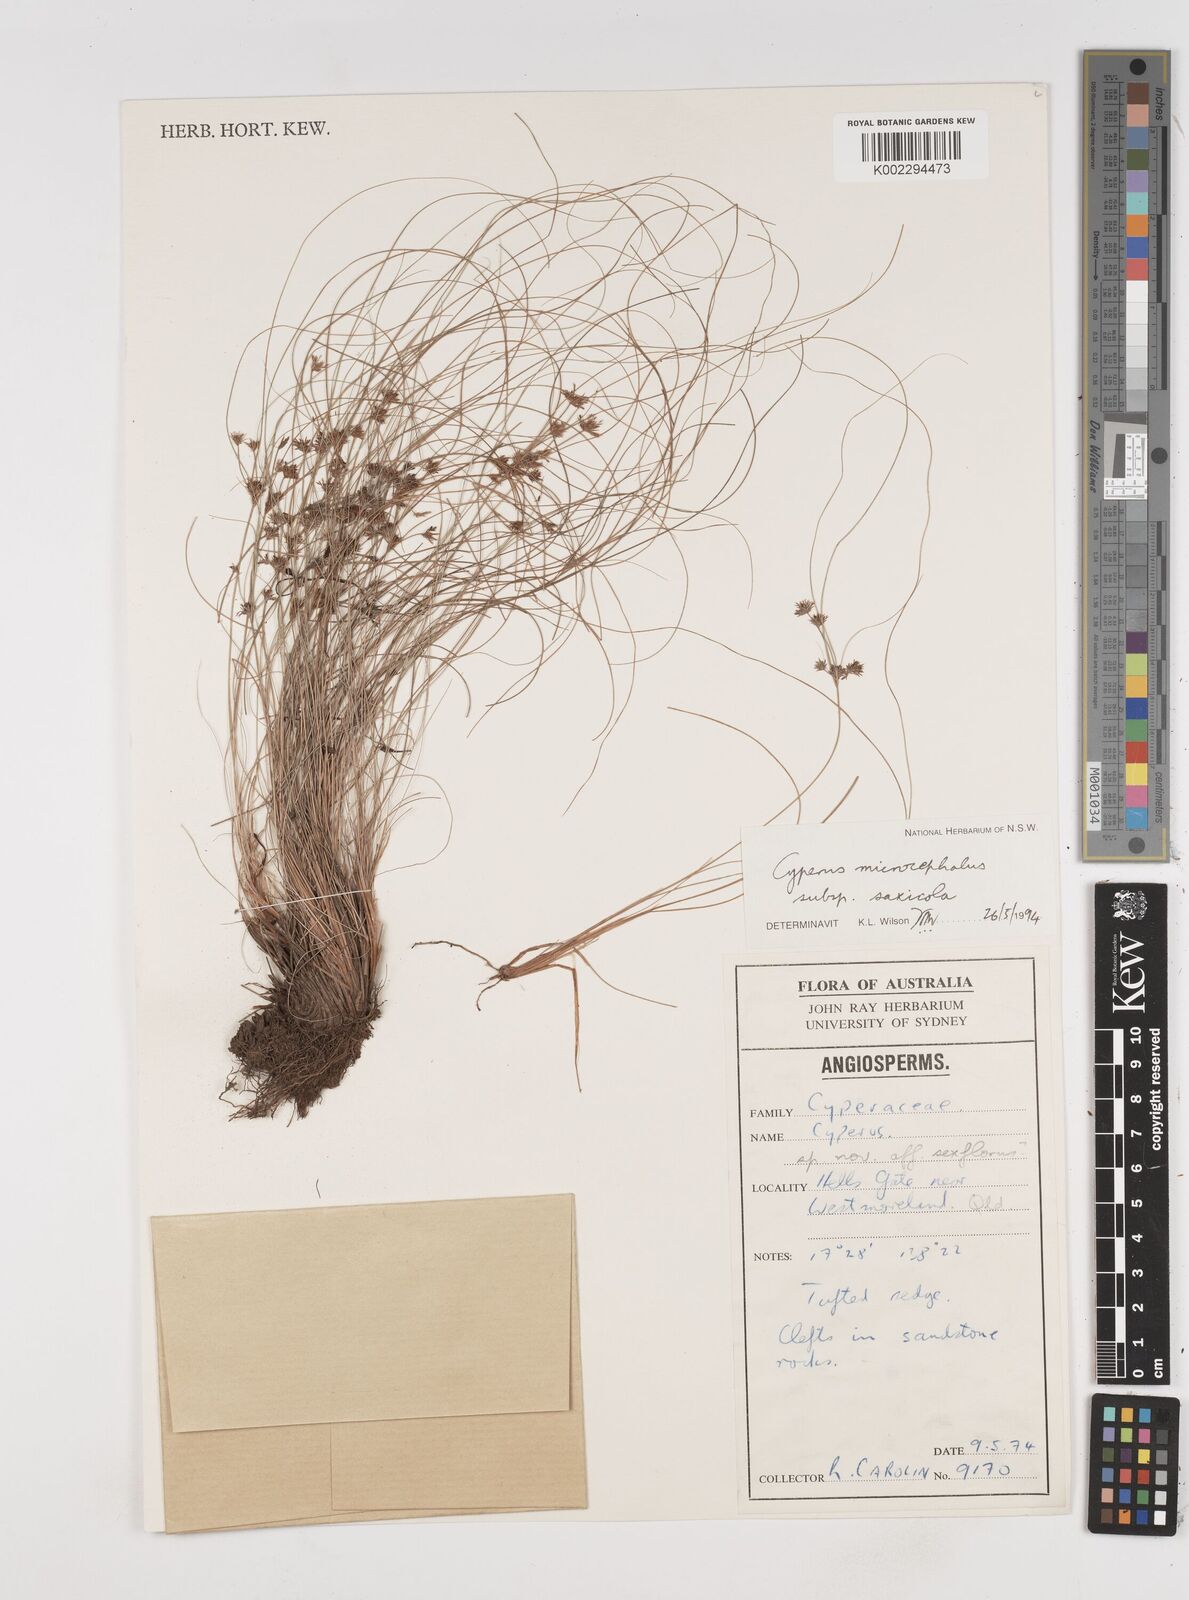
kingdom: Plantae
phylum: Tracheophyta
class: Liliopsida
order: Poales
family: Cyperaceae
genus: Cyperus
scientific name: Cyperus microcephalus
